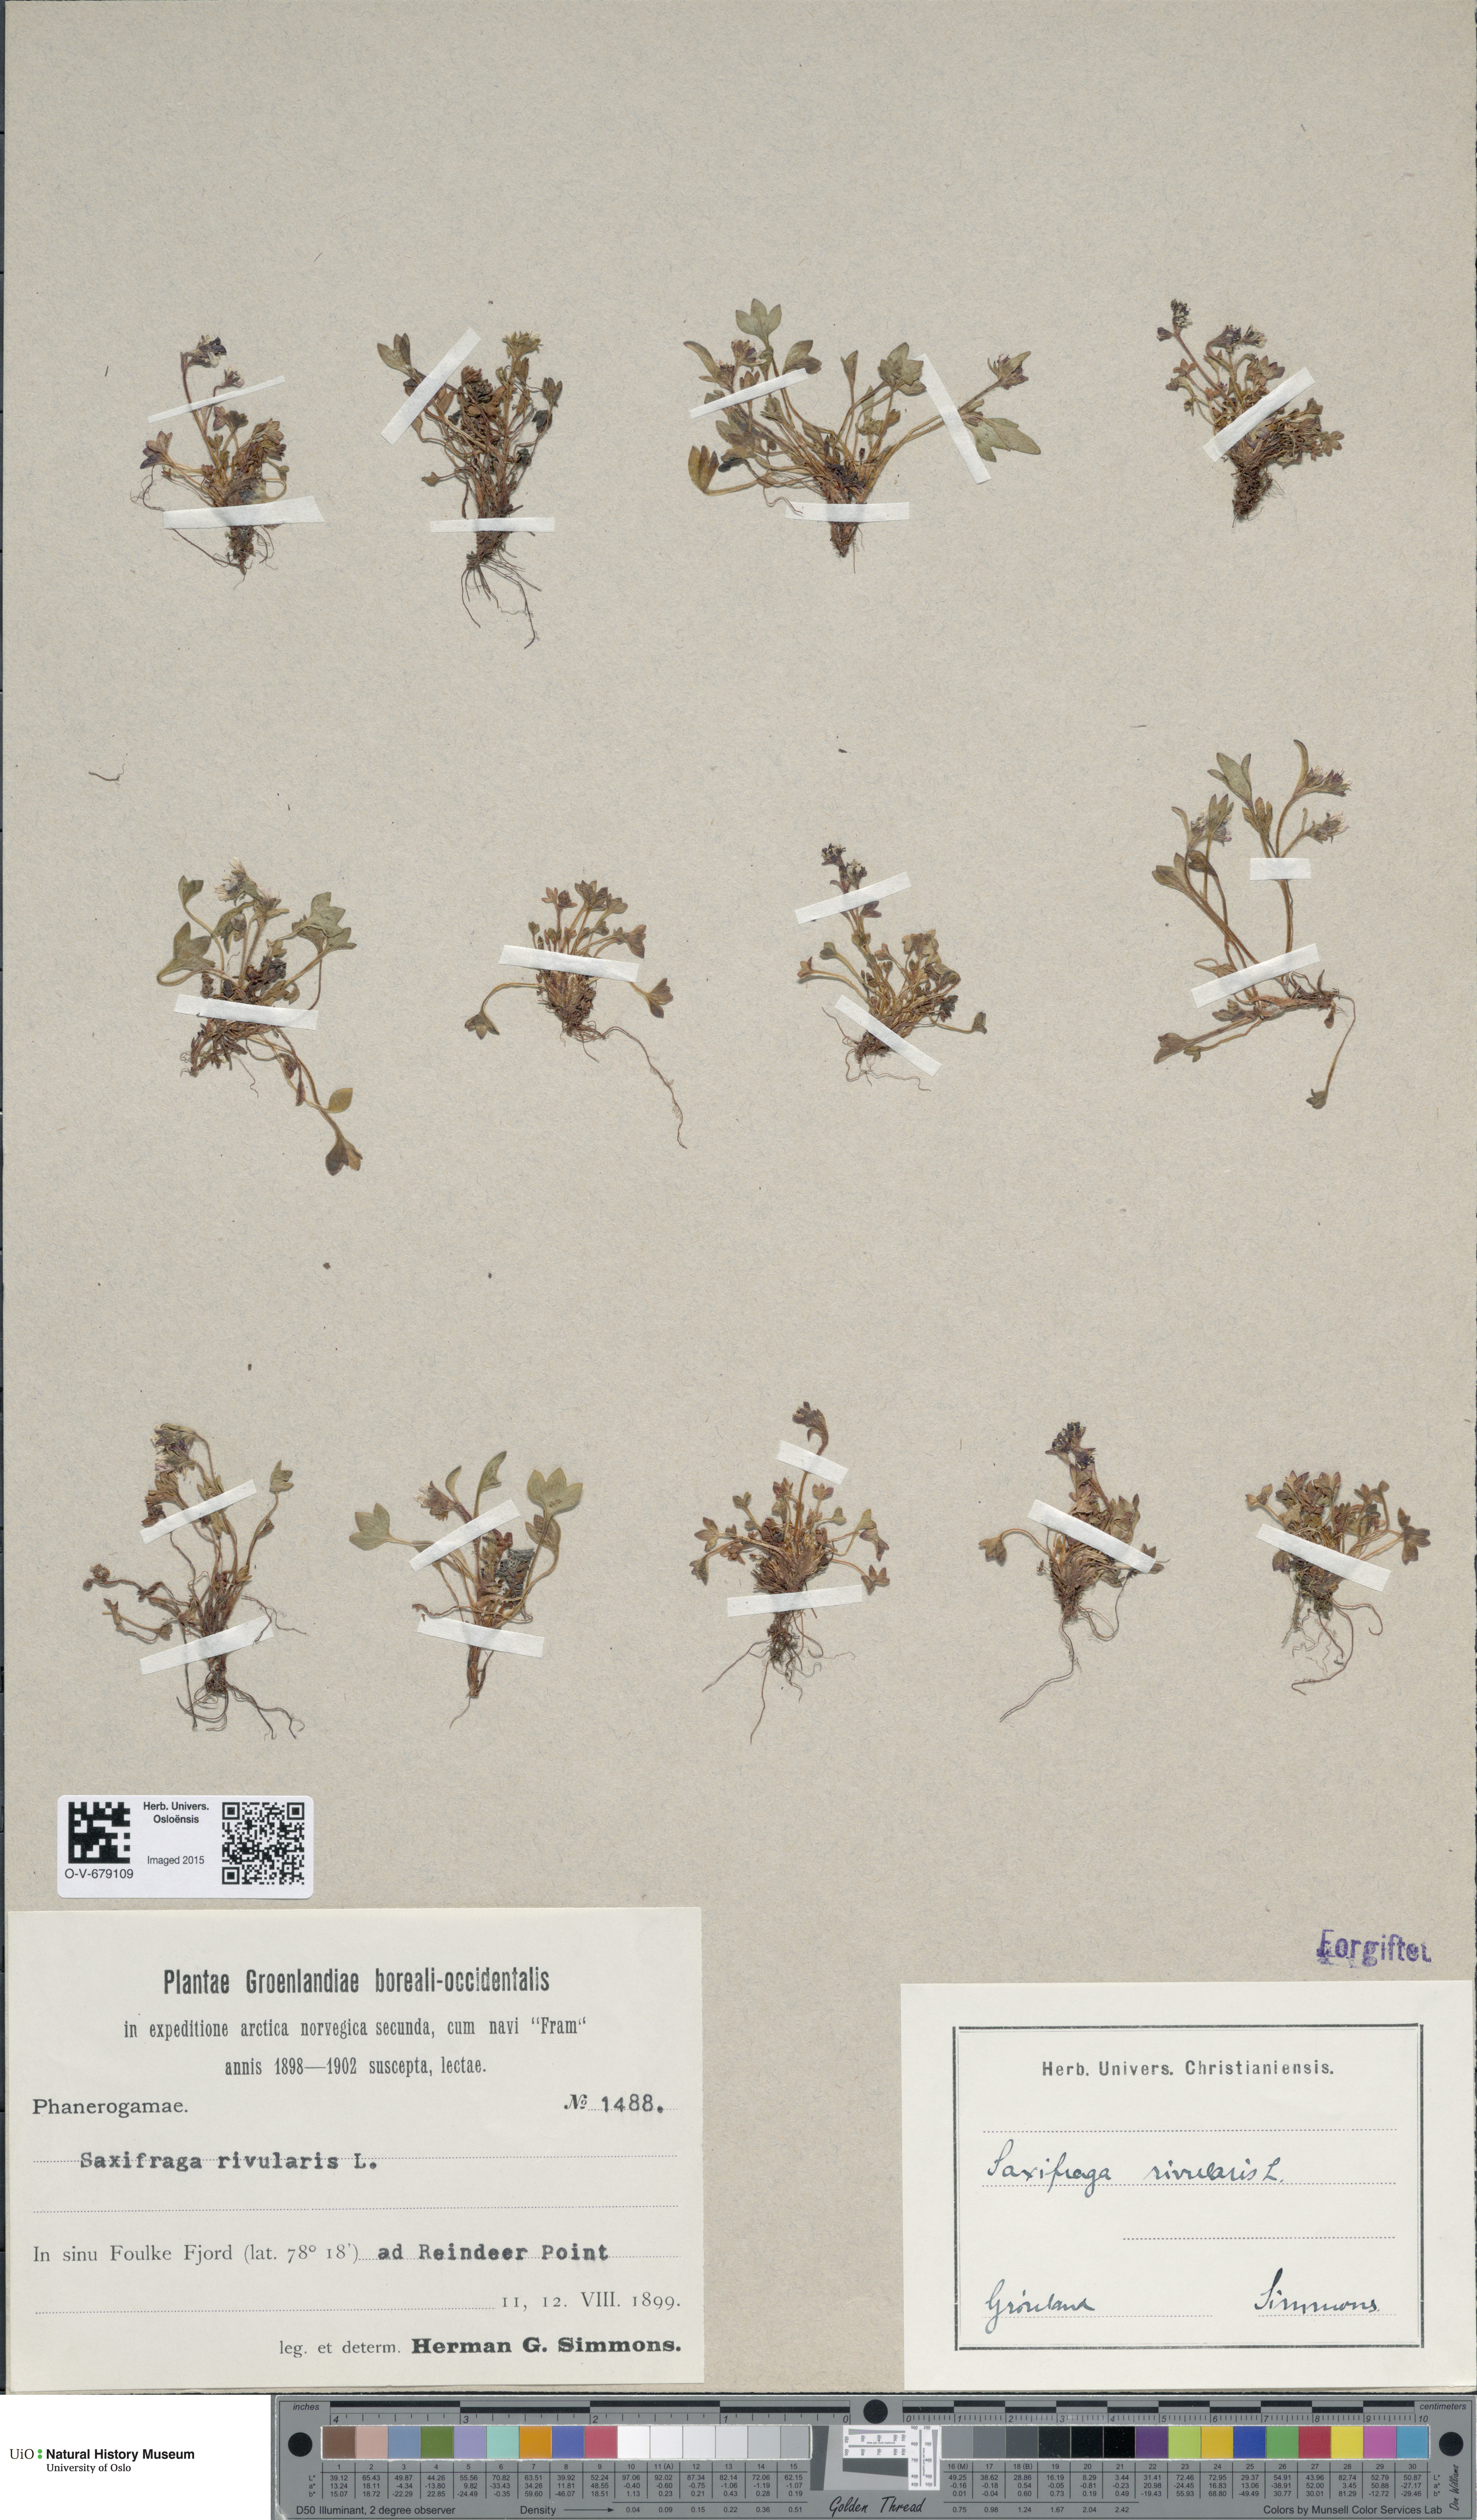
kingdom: Plantae
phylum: Tracheophyta
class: Magnoliopsida
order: Saxifragales
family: Saxifragaceae
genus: Saxifraga
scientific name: Saxifraga rivularis
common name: Highland saxifrage
